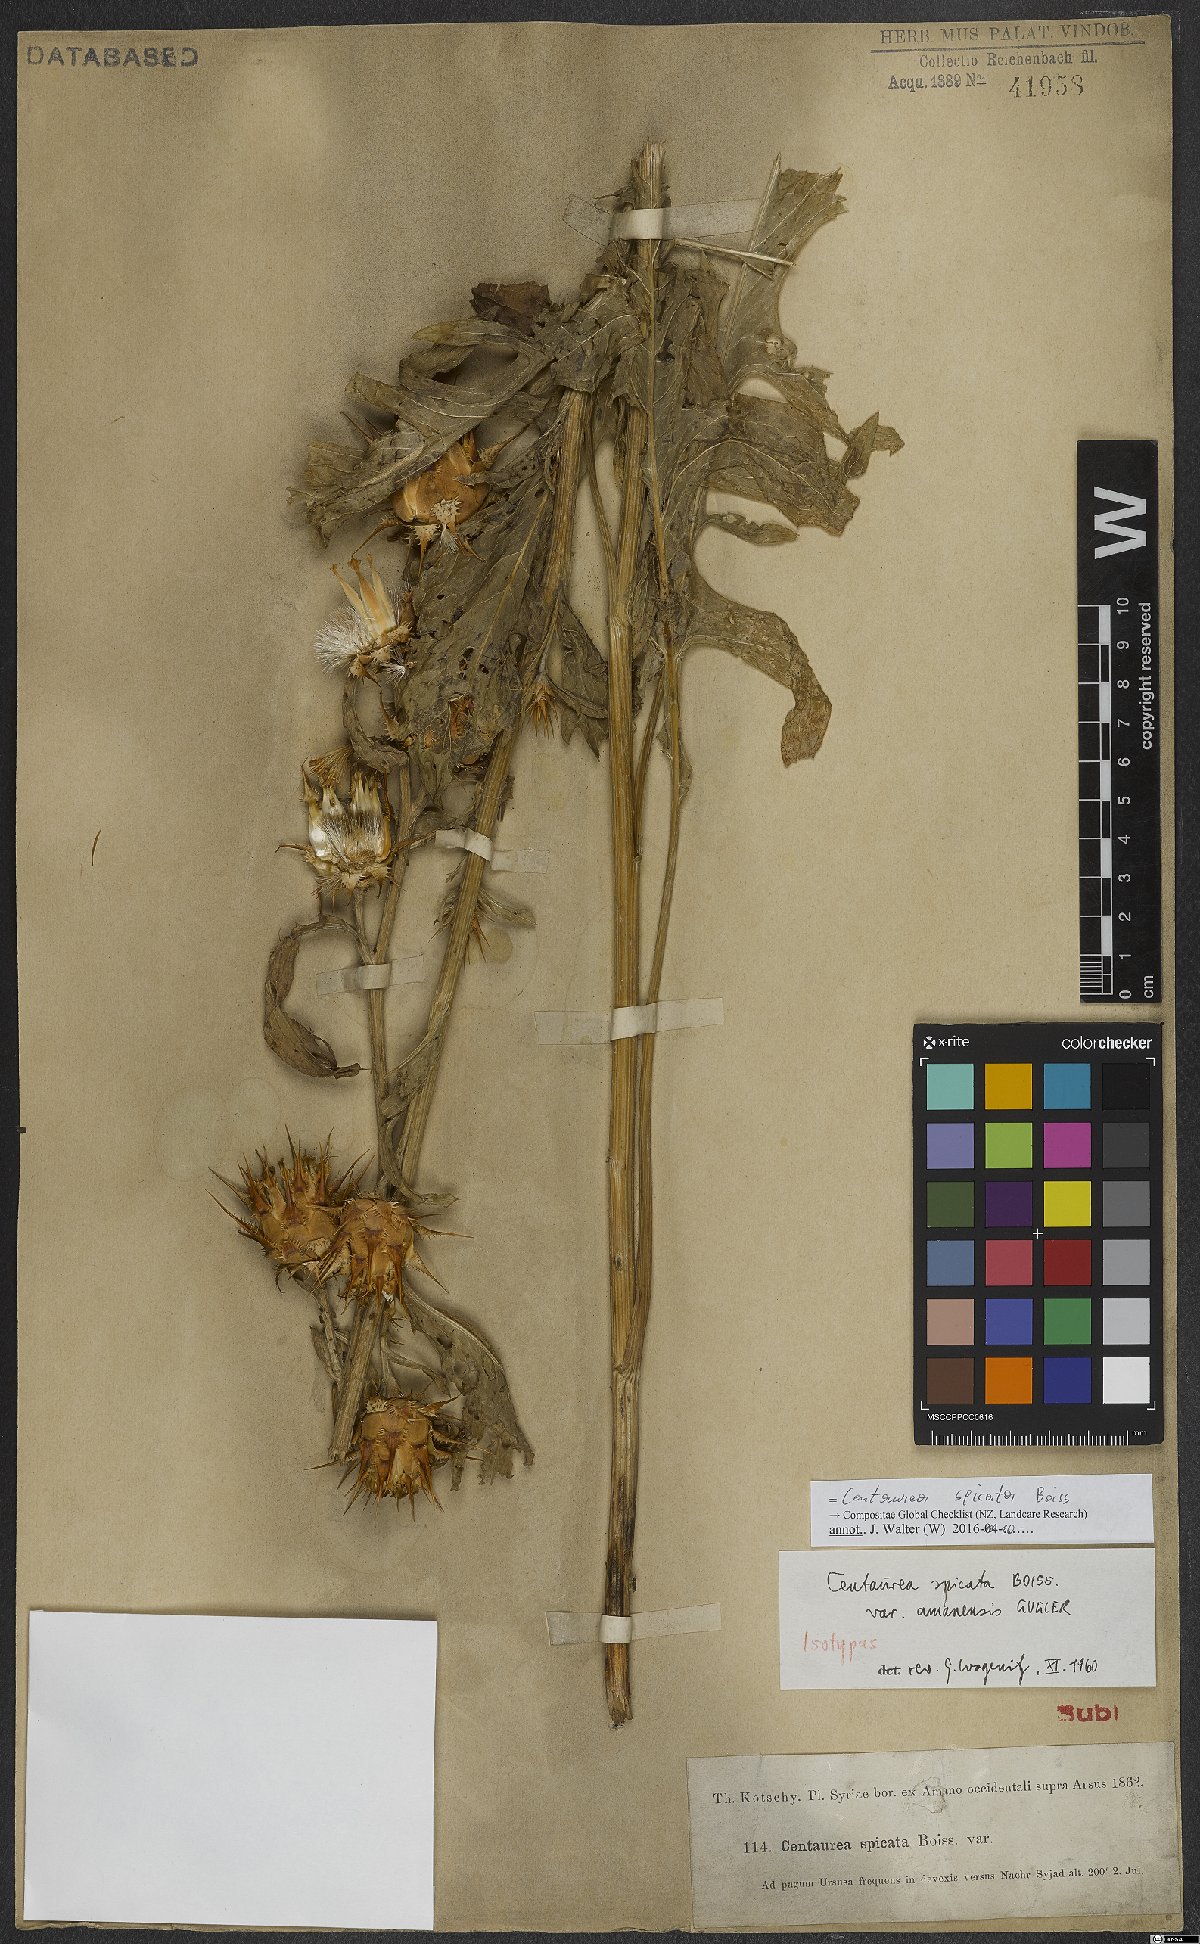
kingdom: Plantae
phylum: Tracheophyta
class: Magnoliopsida
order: Asterales
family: Asteraceae
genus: Centaurea
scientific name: Centaurea spicata
